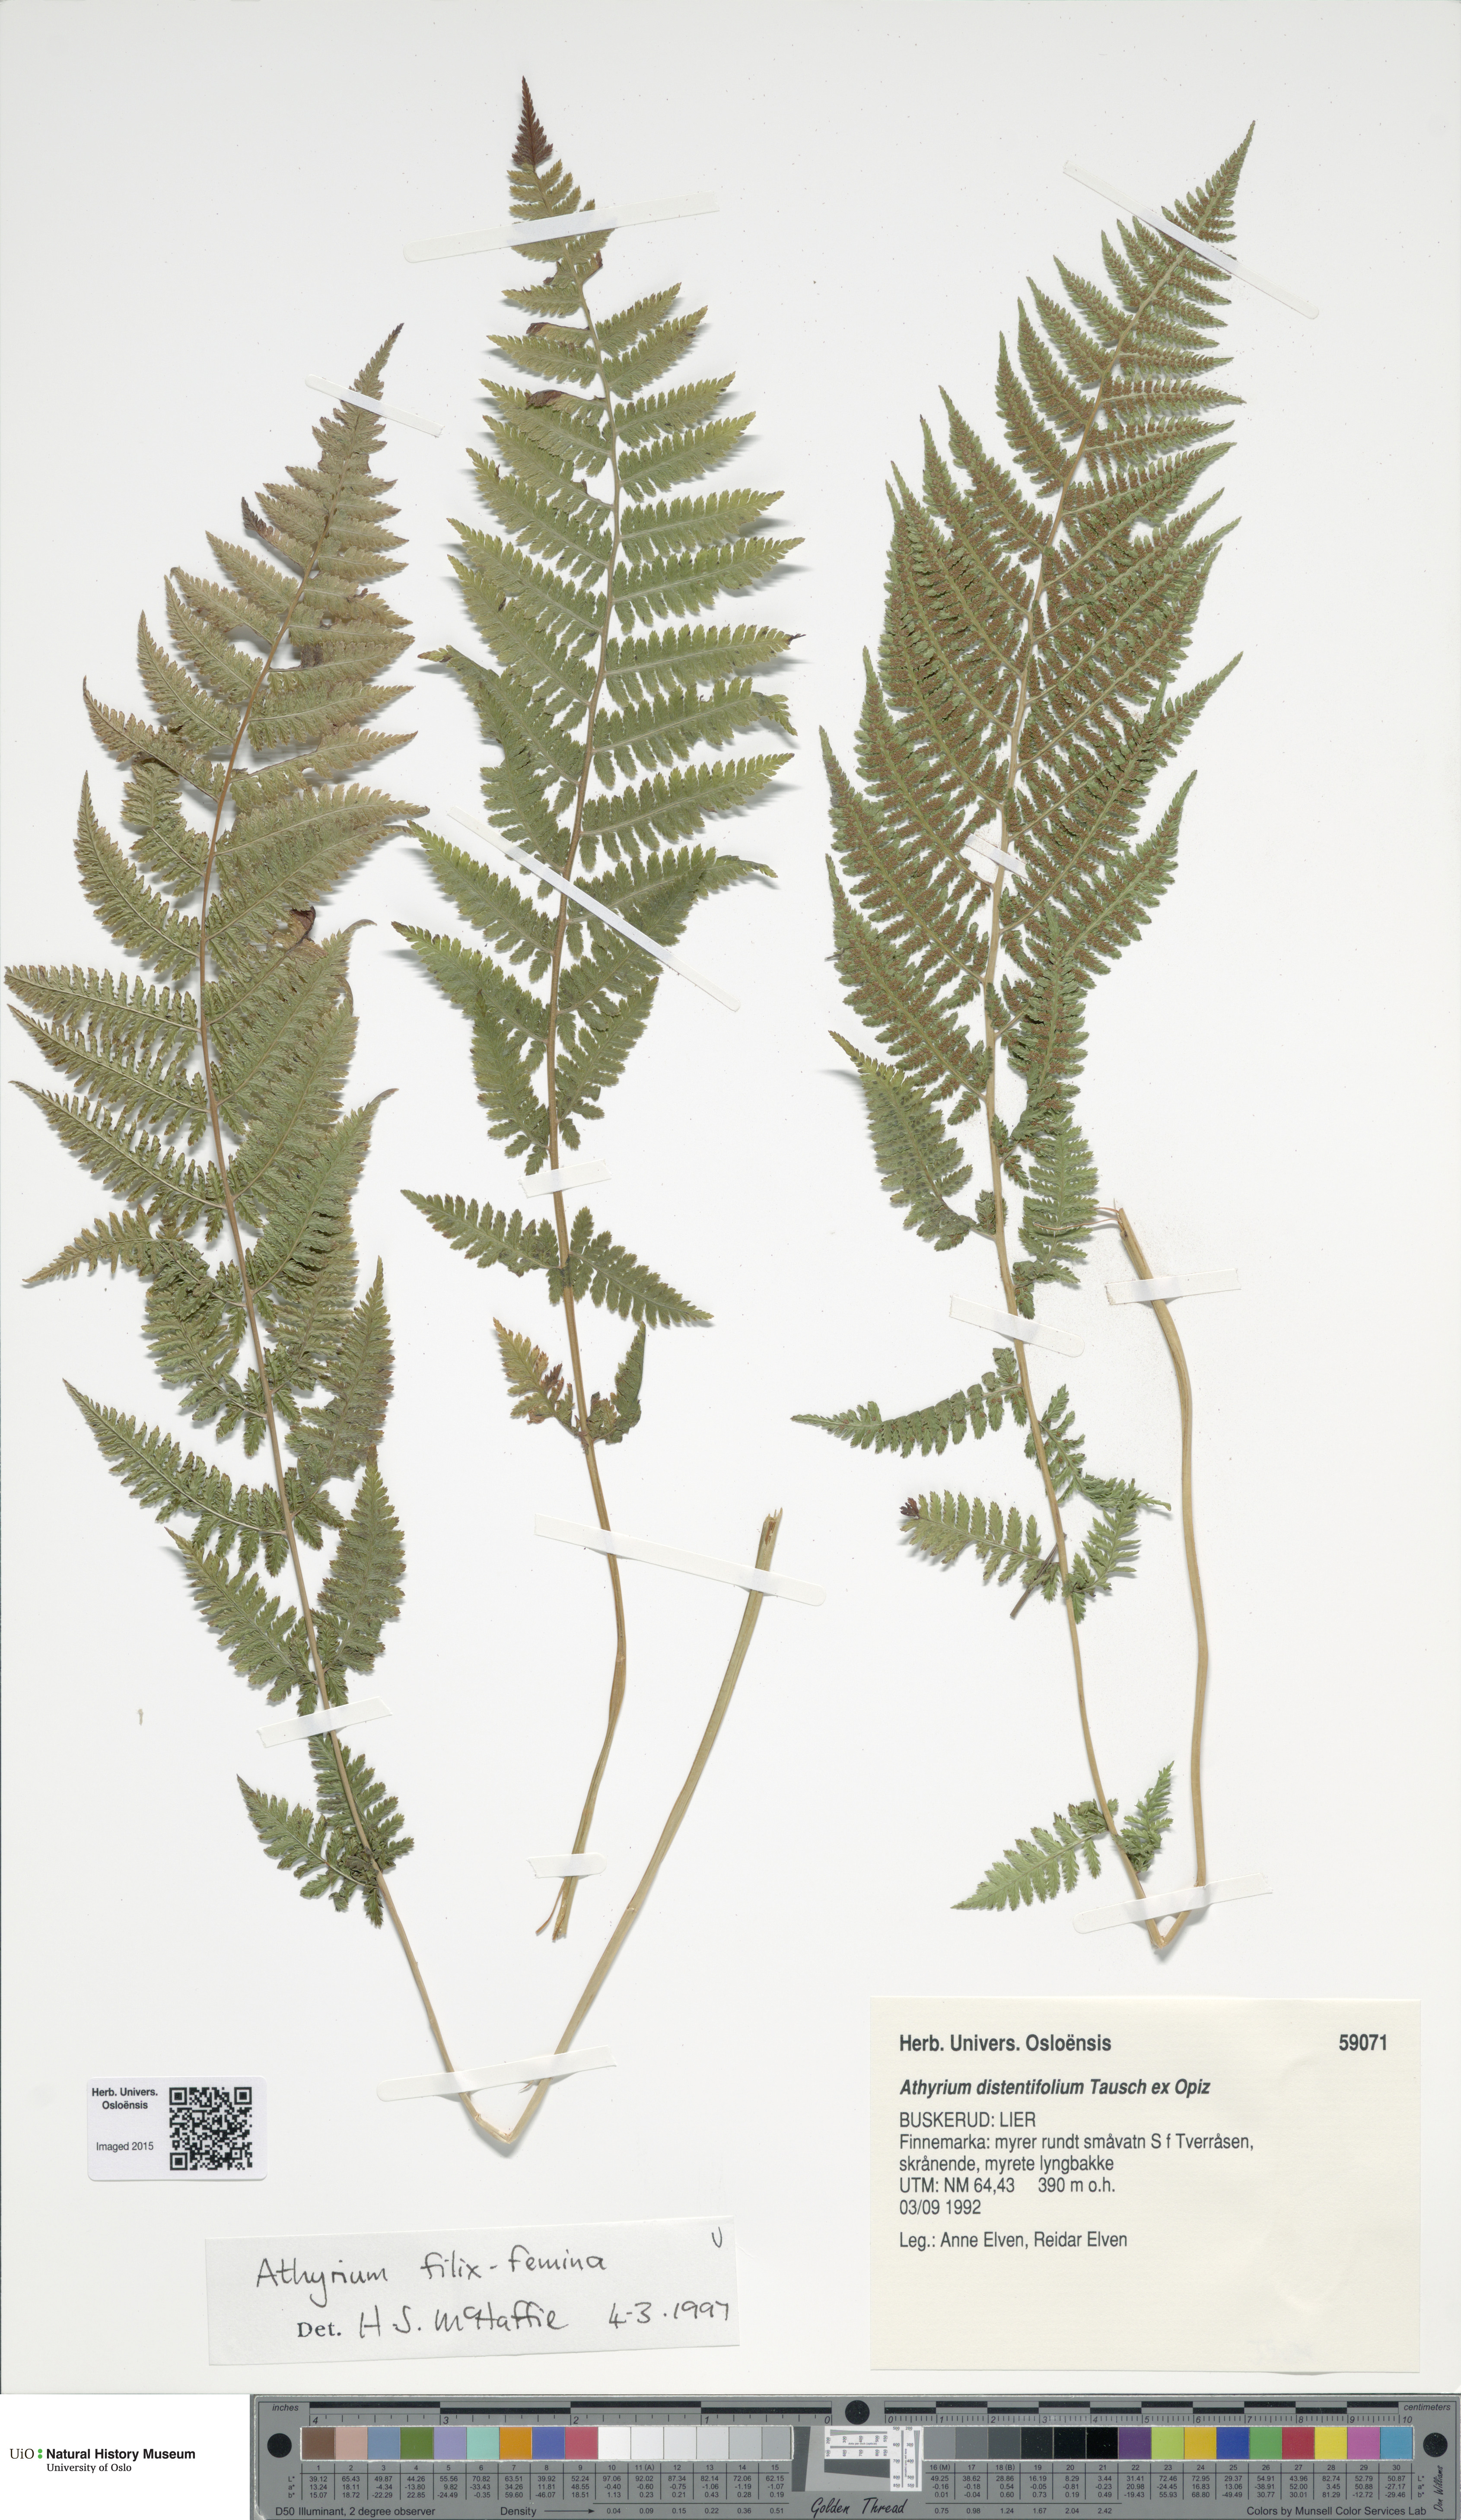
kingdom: Plantae
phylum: Tracheophyta
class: Polypodiopsida
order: Polypodiales
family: Athyriaceae
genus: Athyrium
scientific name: Athyrium filix-femina
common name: Lady fern
